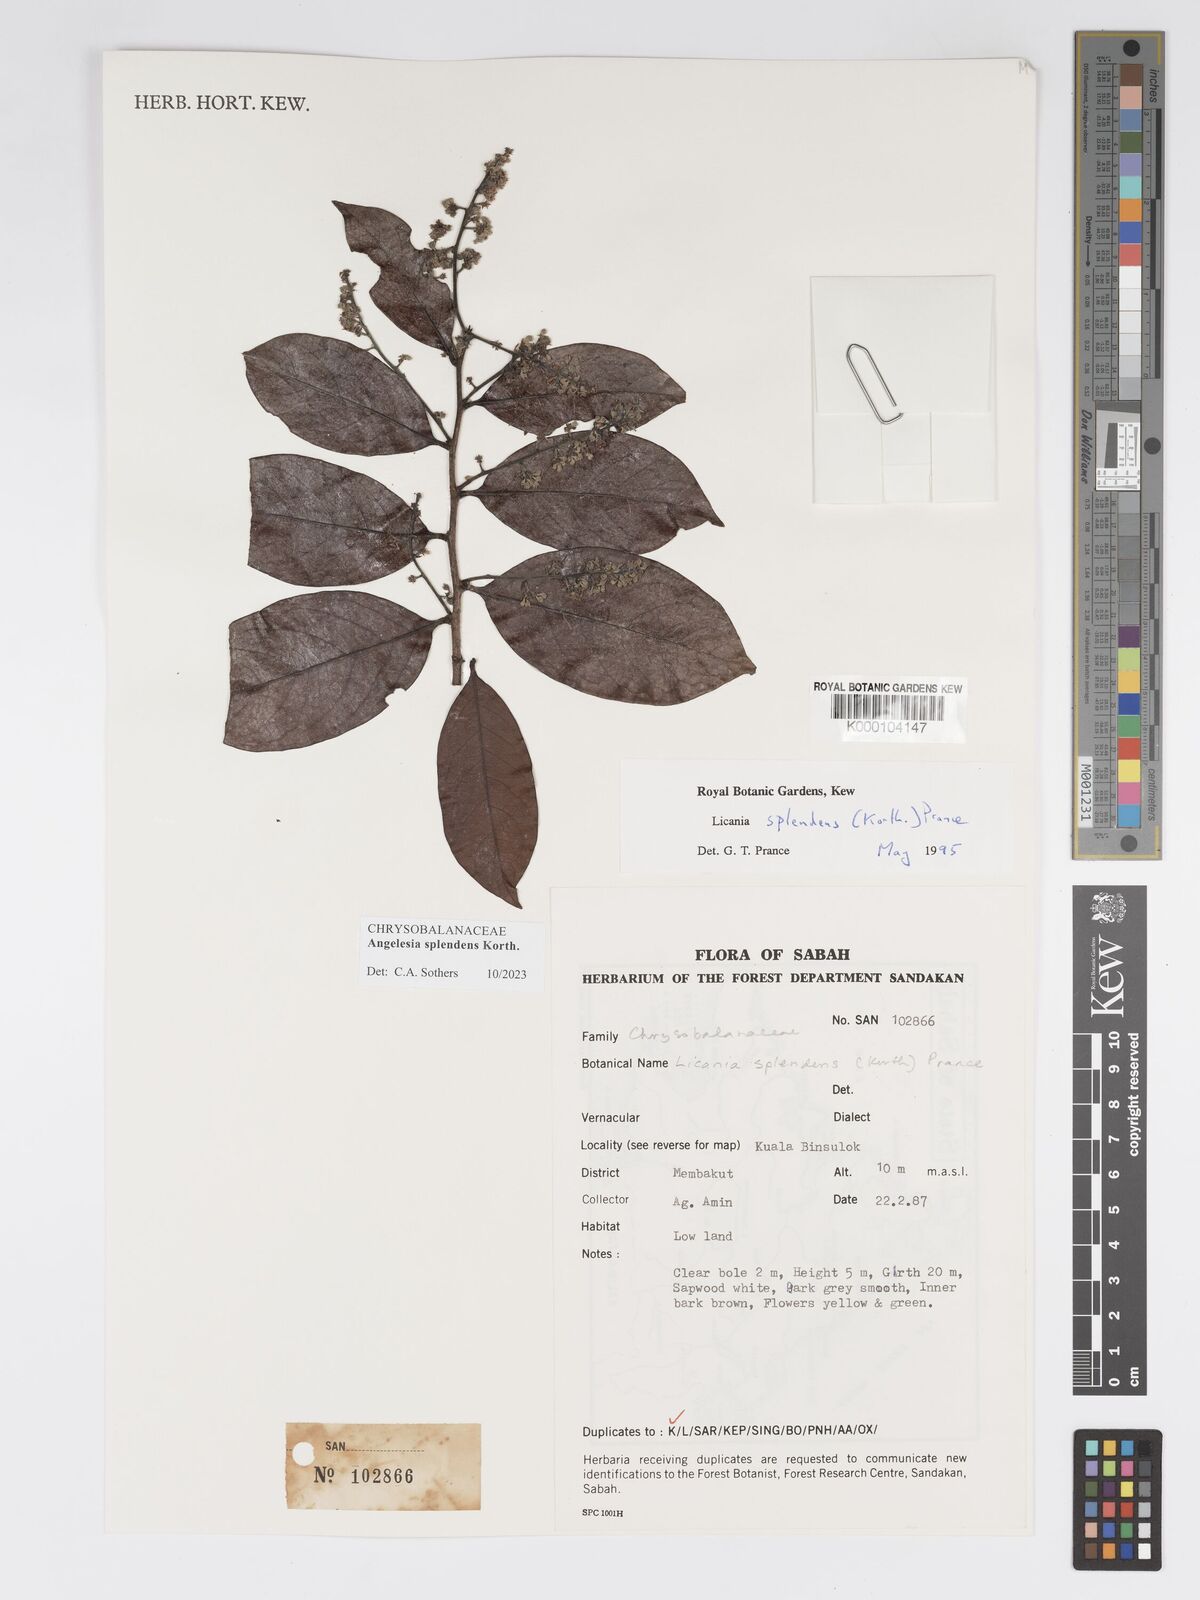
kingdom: Plantae
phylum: Tracheophyta
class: Magnoliopsida
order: Malpighiales
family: Chrysobalanaceae
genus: Angelesia
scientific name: Angelesia splendens
